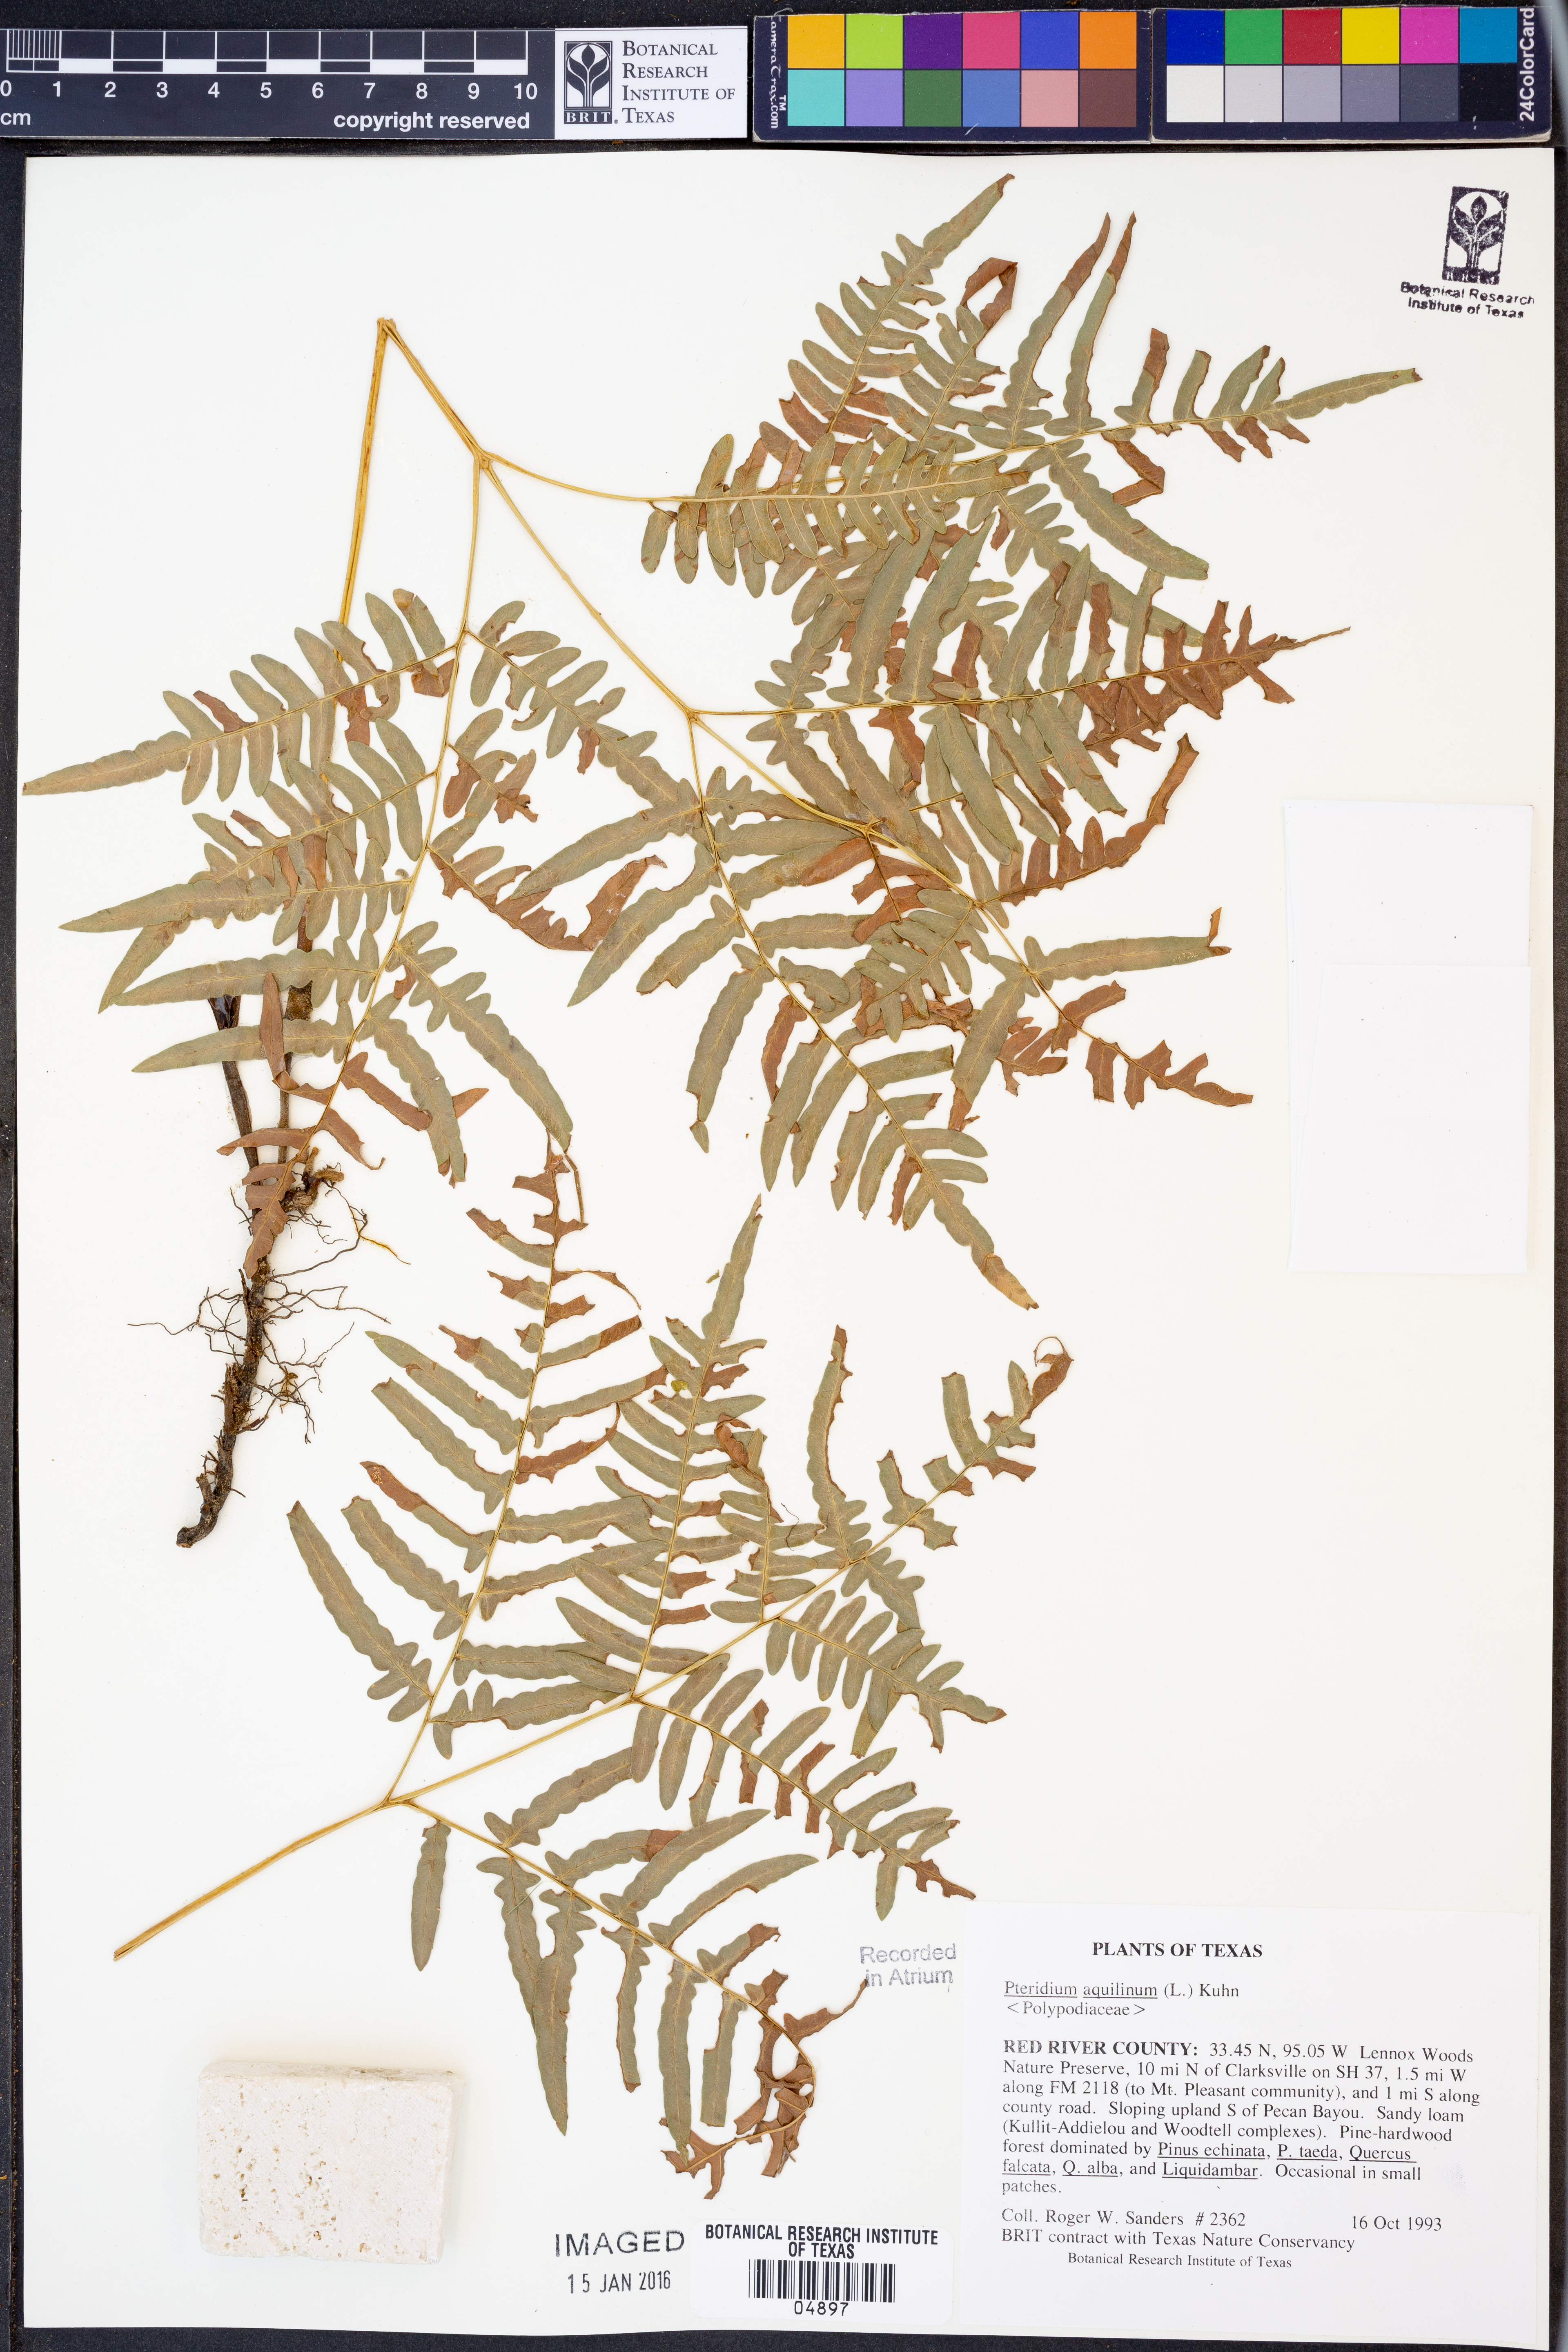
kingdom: Plantae
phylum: Tracheophyta
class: Polypodiopsida
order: Polypodiales
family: Dennstaedtiaceae
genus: Pteridium
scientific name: Pteridium aquilinum
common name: Bracken
